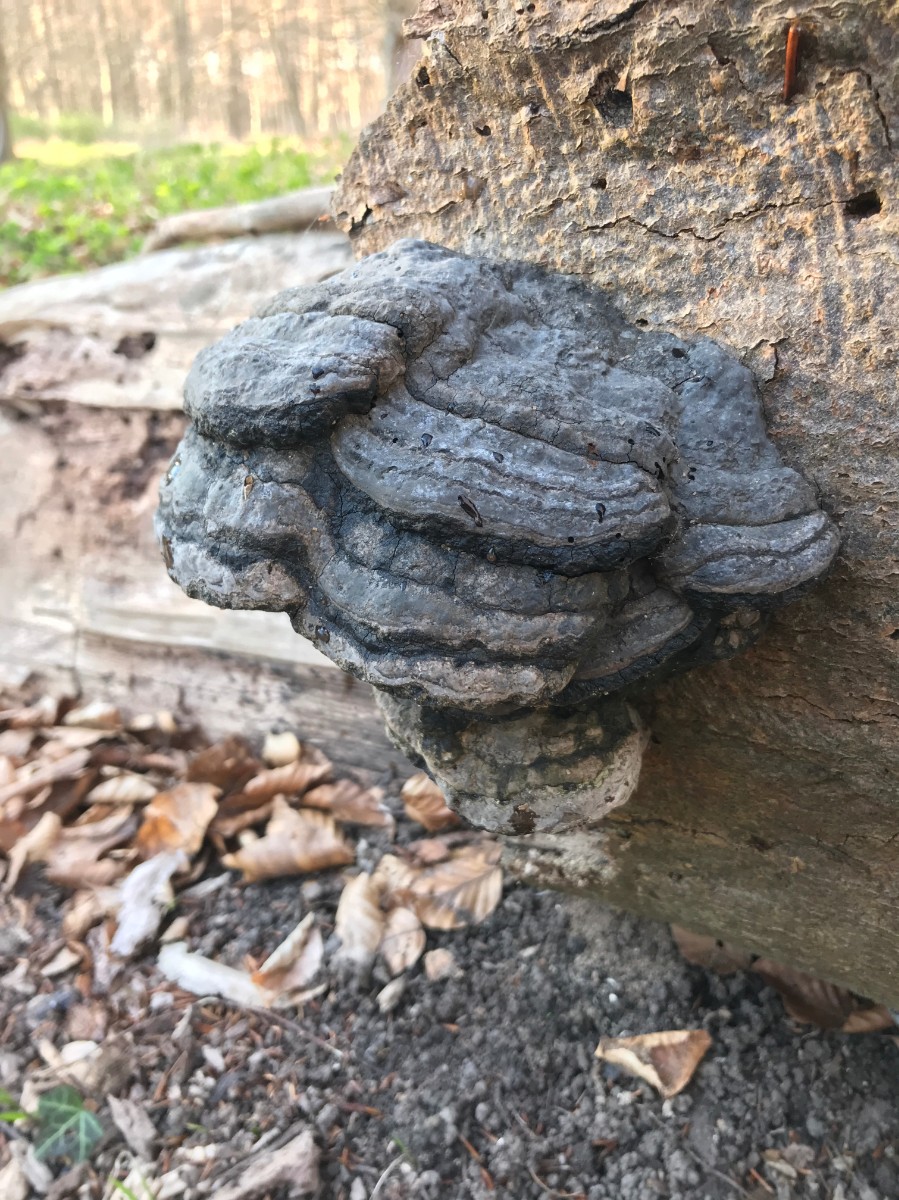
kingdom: Fungi
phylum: Basidiomycota
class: Agaricomycetes
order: Polyporales
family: Polyporaceae
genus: Fomes
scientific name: Fomes fomentarius
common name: tøndersvamp
